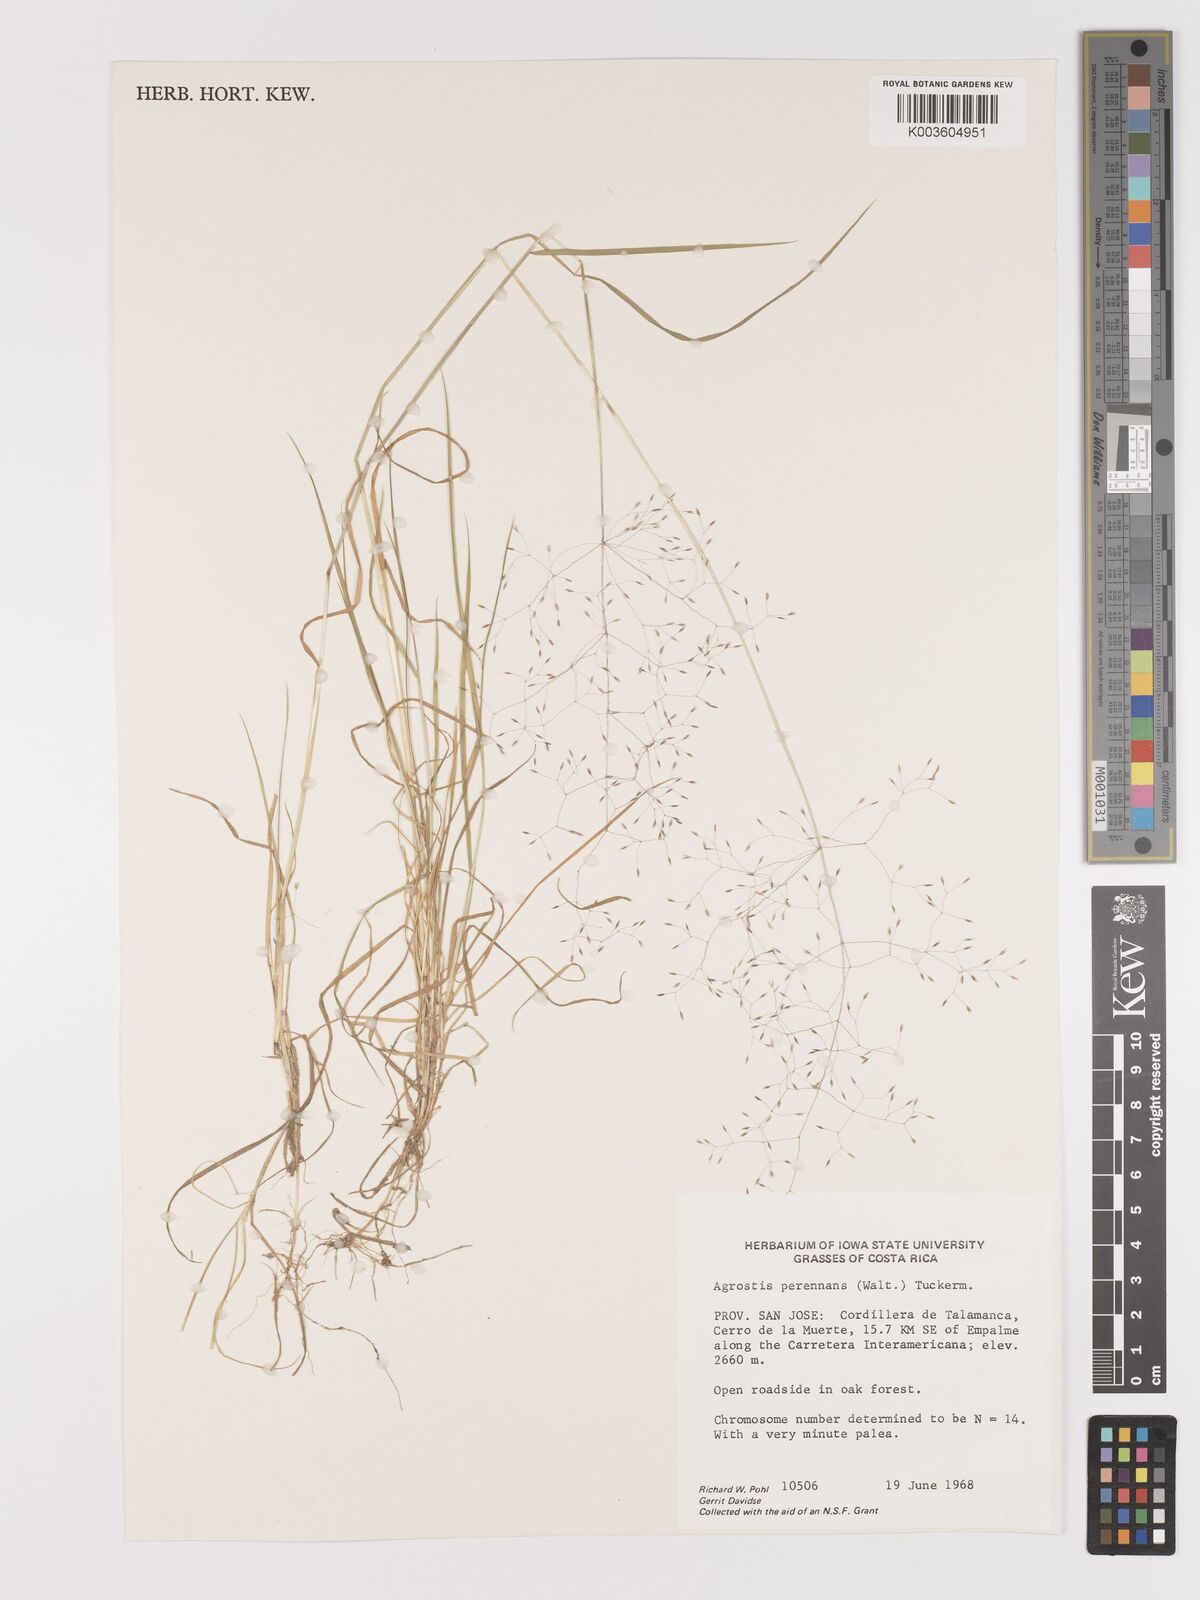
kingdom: Plantae
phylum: Tracheophyta
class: Liliopsida
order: Poales
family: Poaceae
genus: Agrostis
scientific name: Agrostis perennans
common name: Autumn bent
